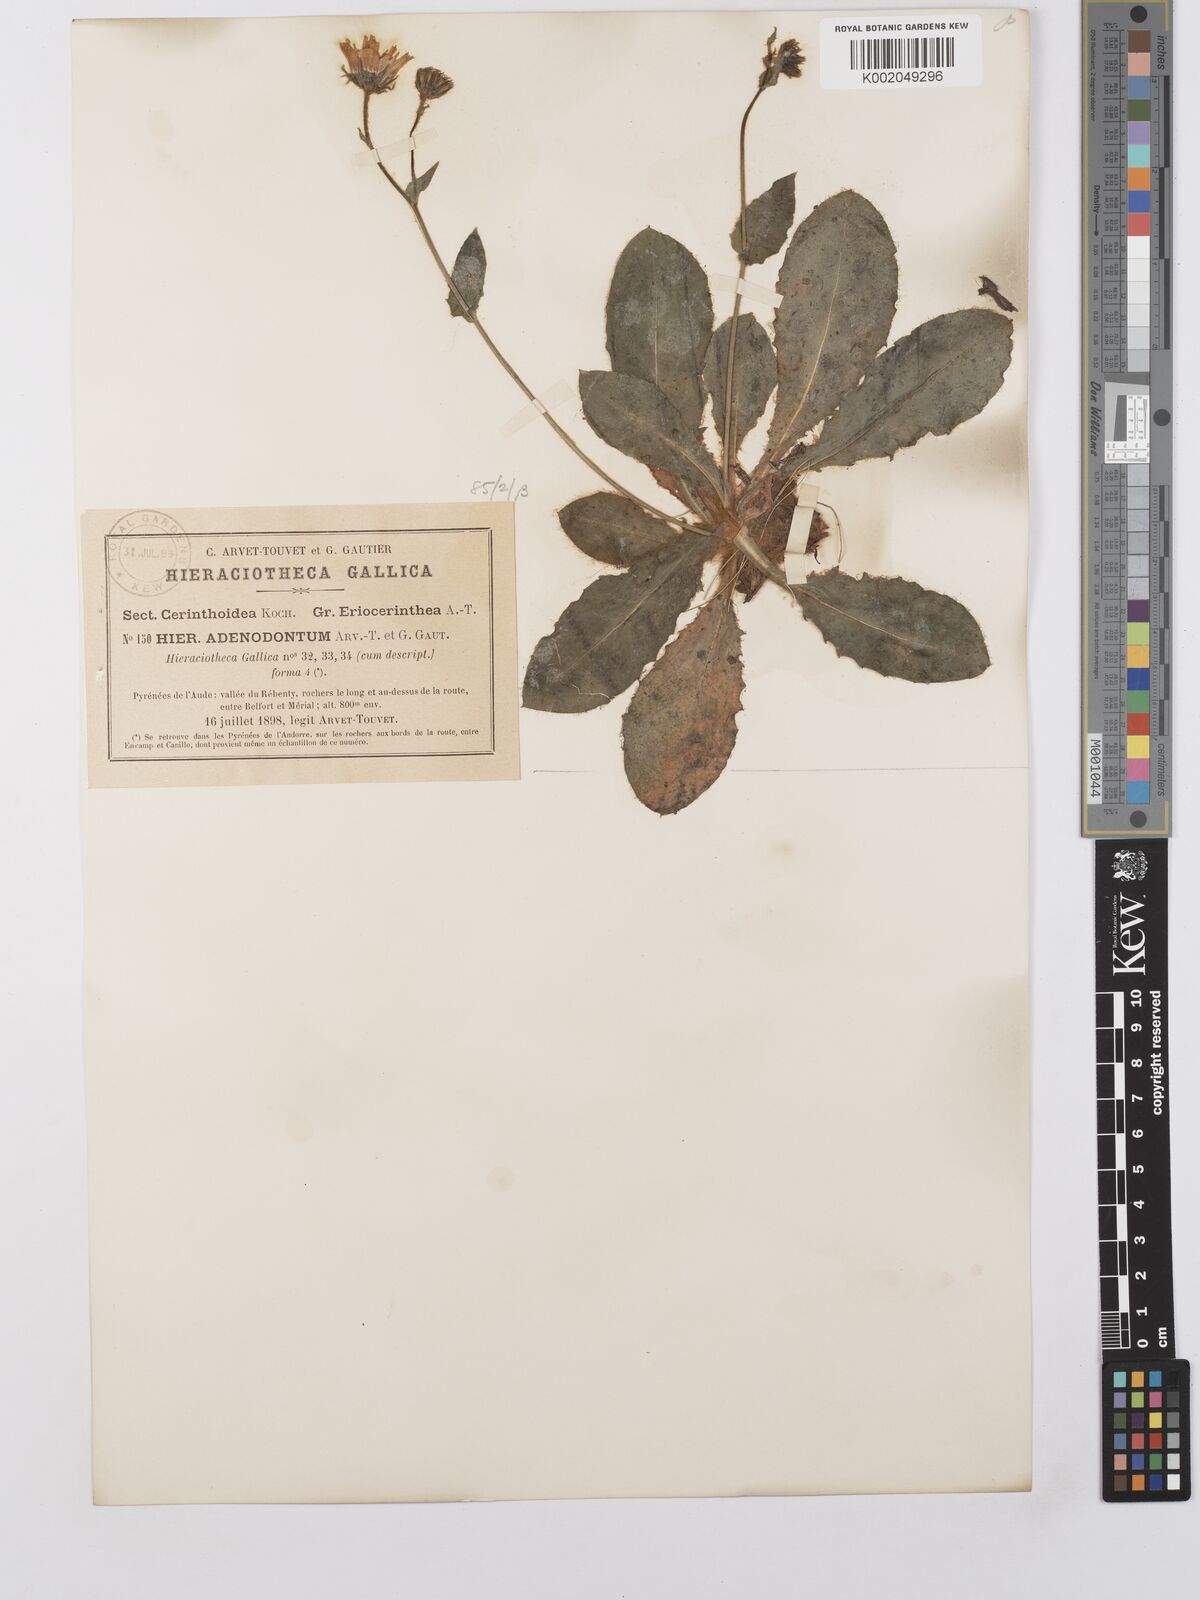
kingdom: Plantae
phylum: Tracheophyta
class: Magnoliopsida
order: Asterales
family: Asteraceae
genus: Hieracium
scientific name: Hieracium
